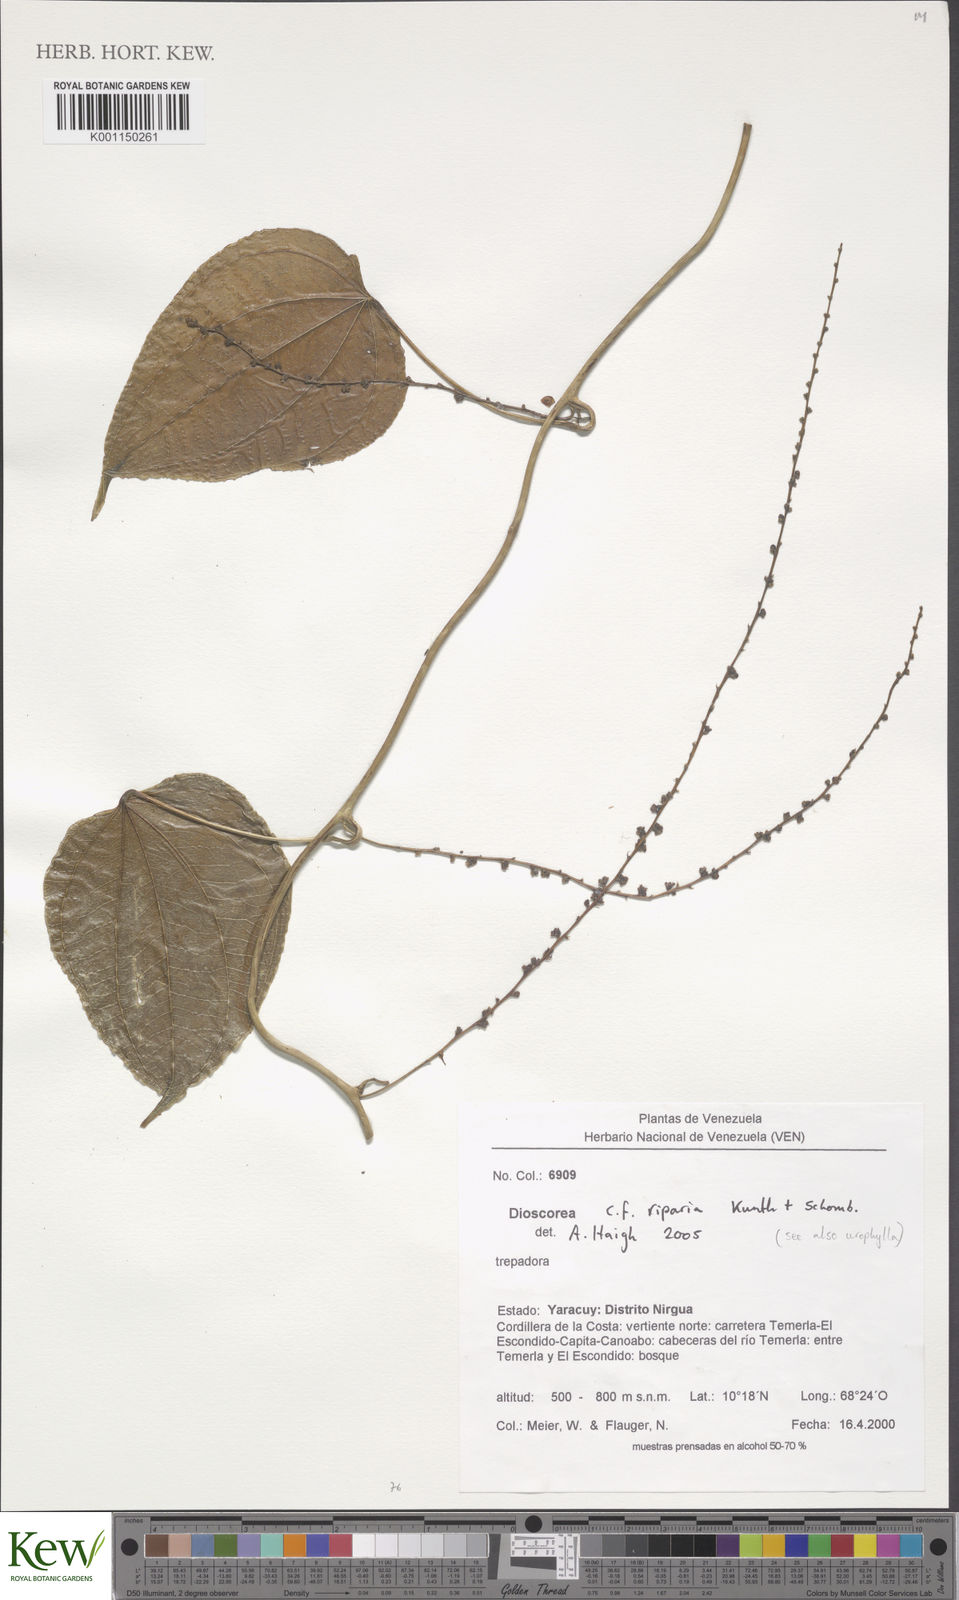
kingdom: Plantae
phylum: Tracheophyta
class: Liliopsida
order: Dioscoreales
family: Dioscoreaceae
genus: Dioscorea
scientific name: Dioscorea abysmophila
